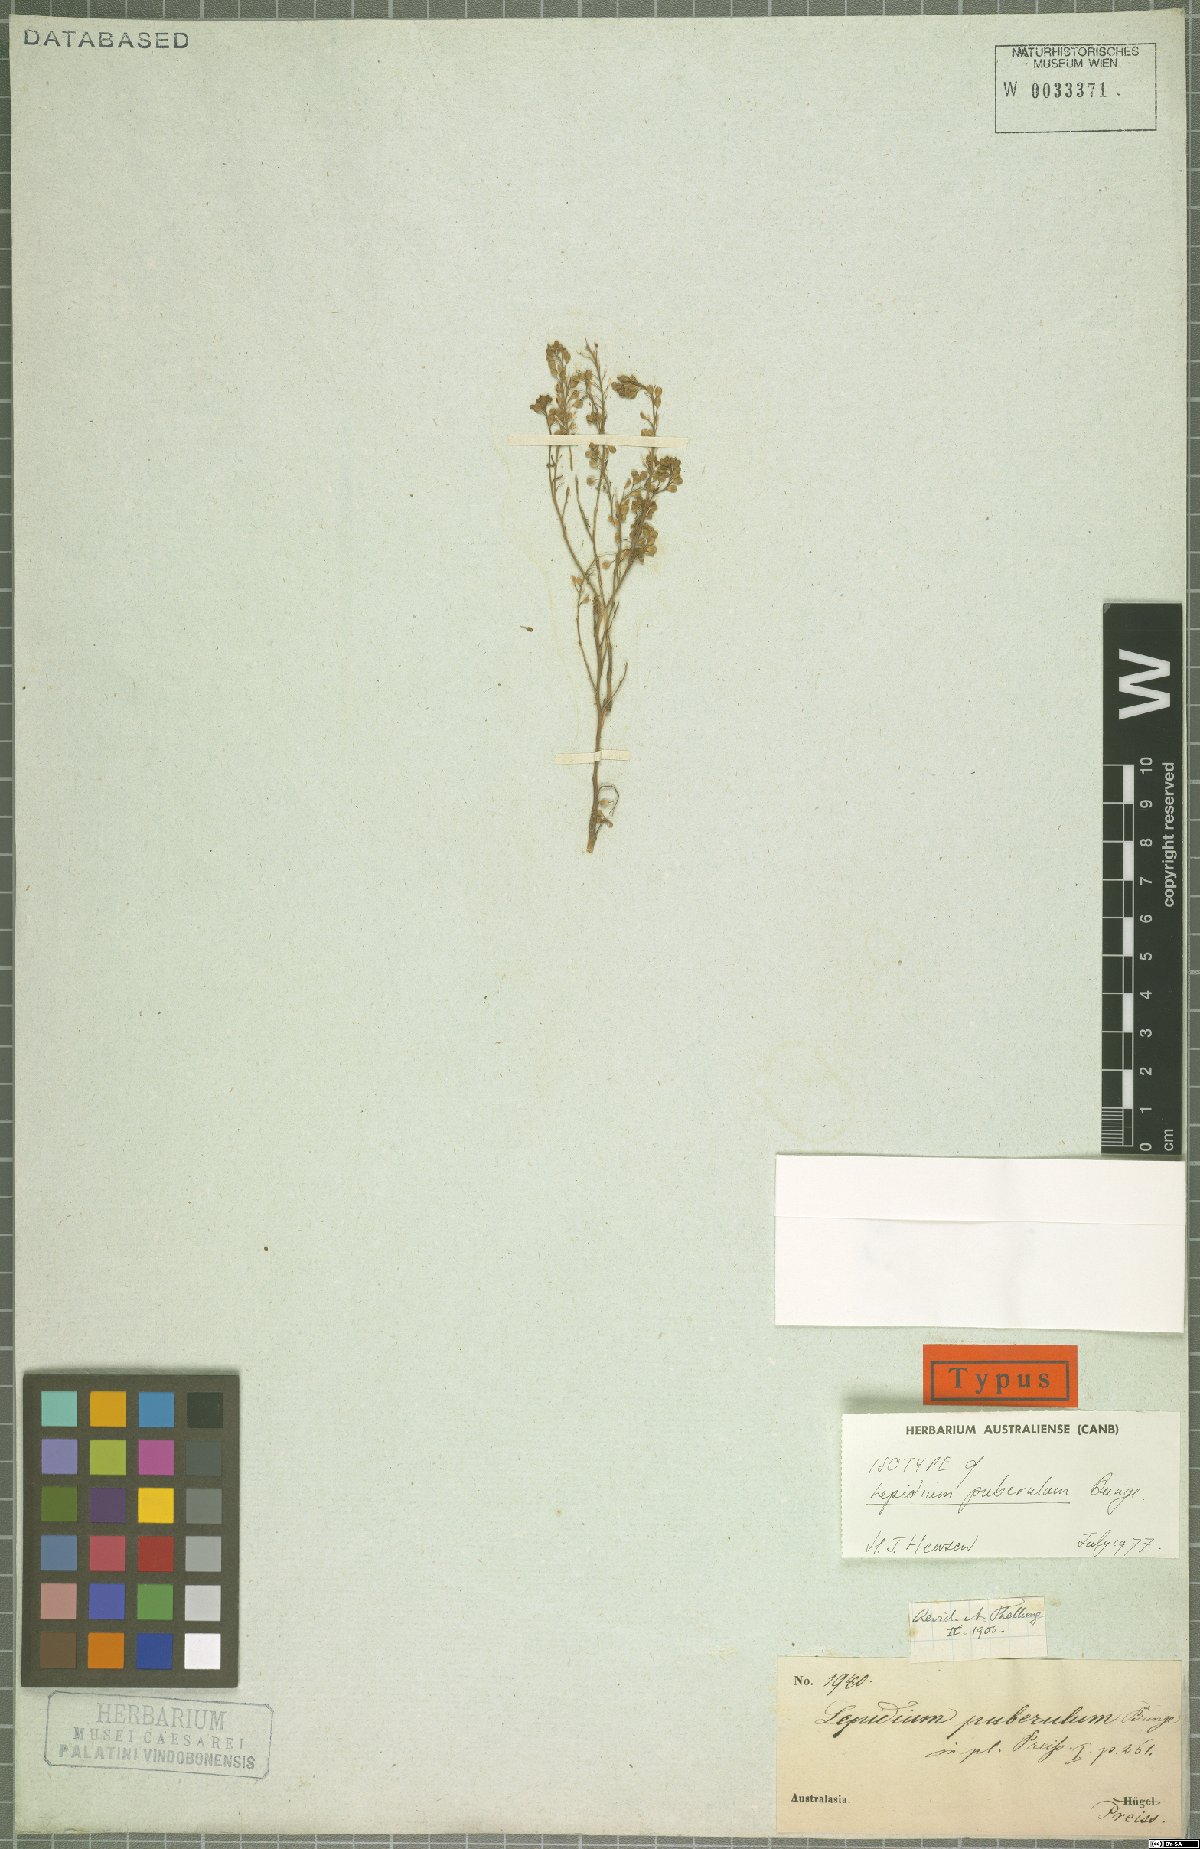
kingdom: Plantae
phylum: Tracheophyta
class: Magnoliopsida
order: Brassicales
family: Brassicaceae
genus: Lepidium
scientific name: Lepidium puberulum
